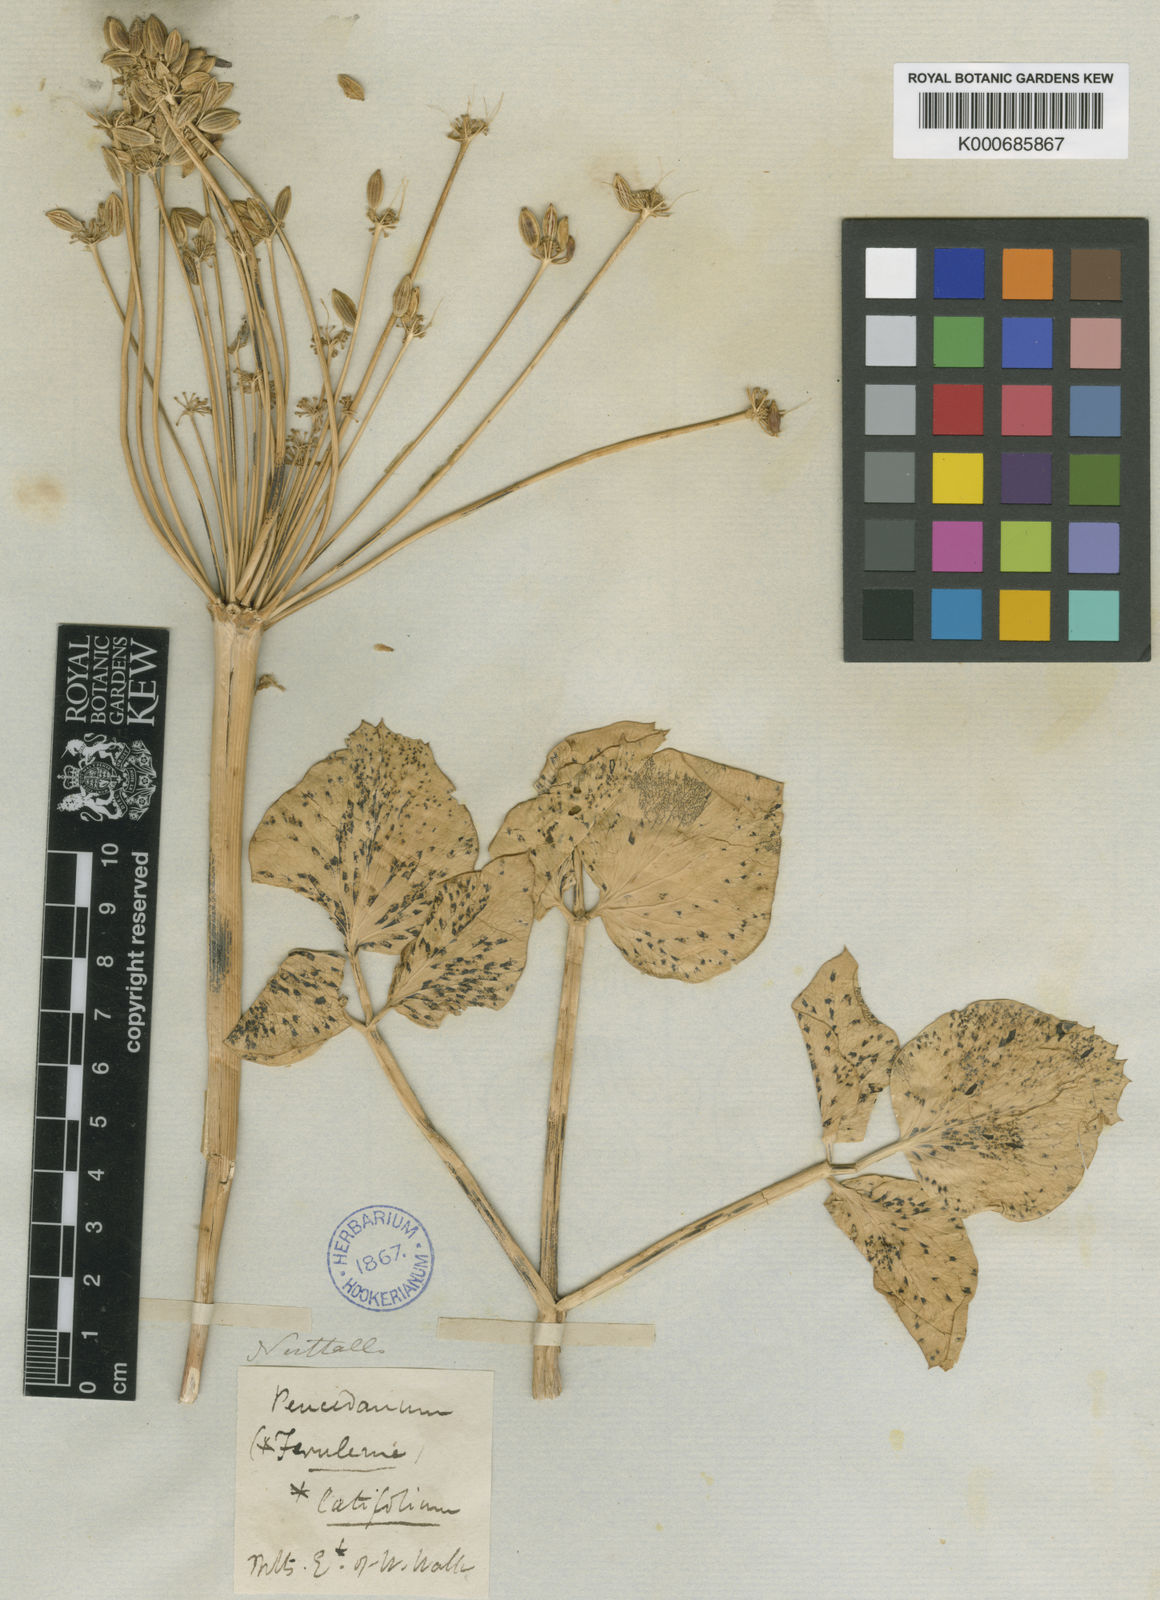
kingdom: Plantae
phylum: Tracheophyta
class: Magnoliopsida
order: Apiales
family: Apiaceae
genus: Lomatium
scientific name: Lomatium nudicaule
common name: Pestle lomatium
